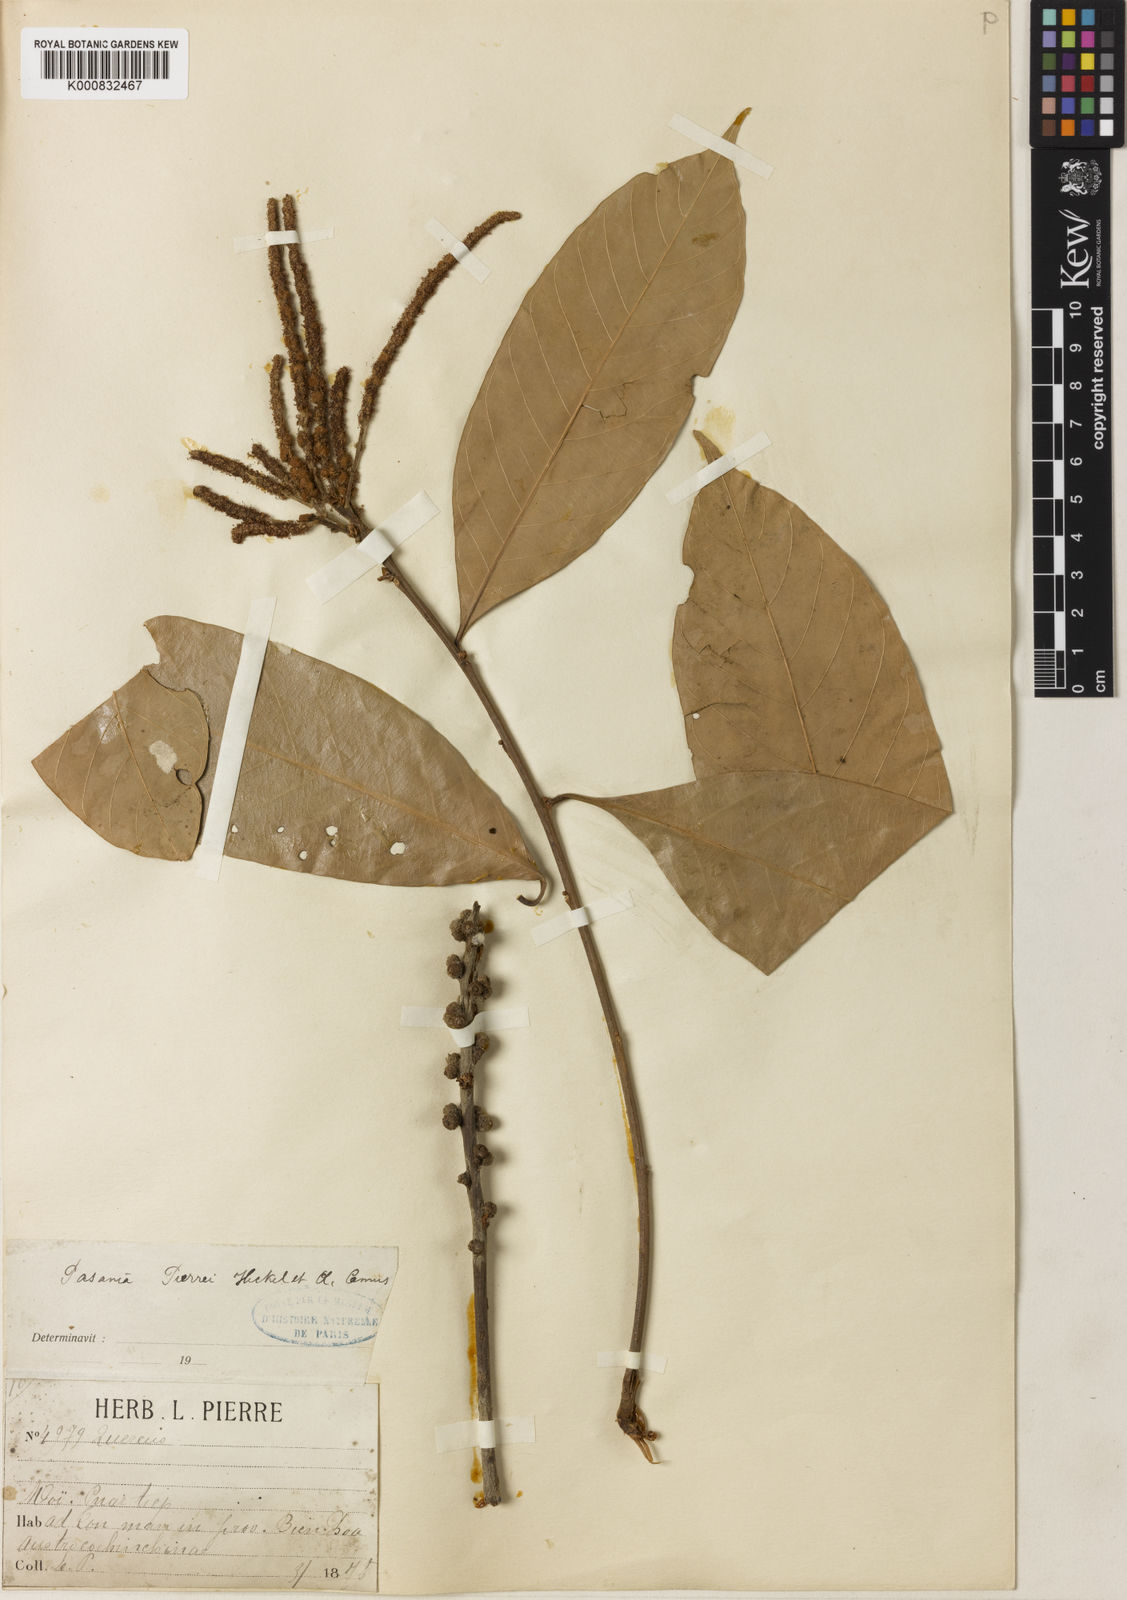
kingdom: Plantae
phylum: Tracheophyta
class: Magnoliopsida
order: Fagales
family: Fagaceae
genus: Lithocarpus
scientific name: Lithocarpus pierrei
